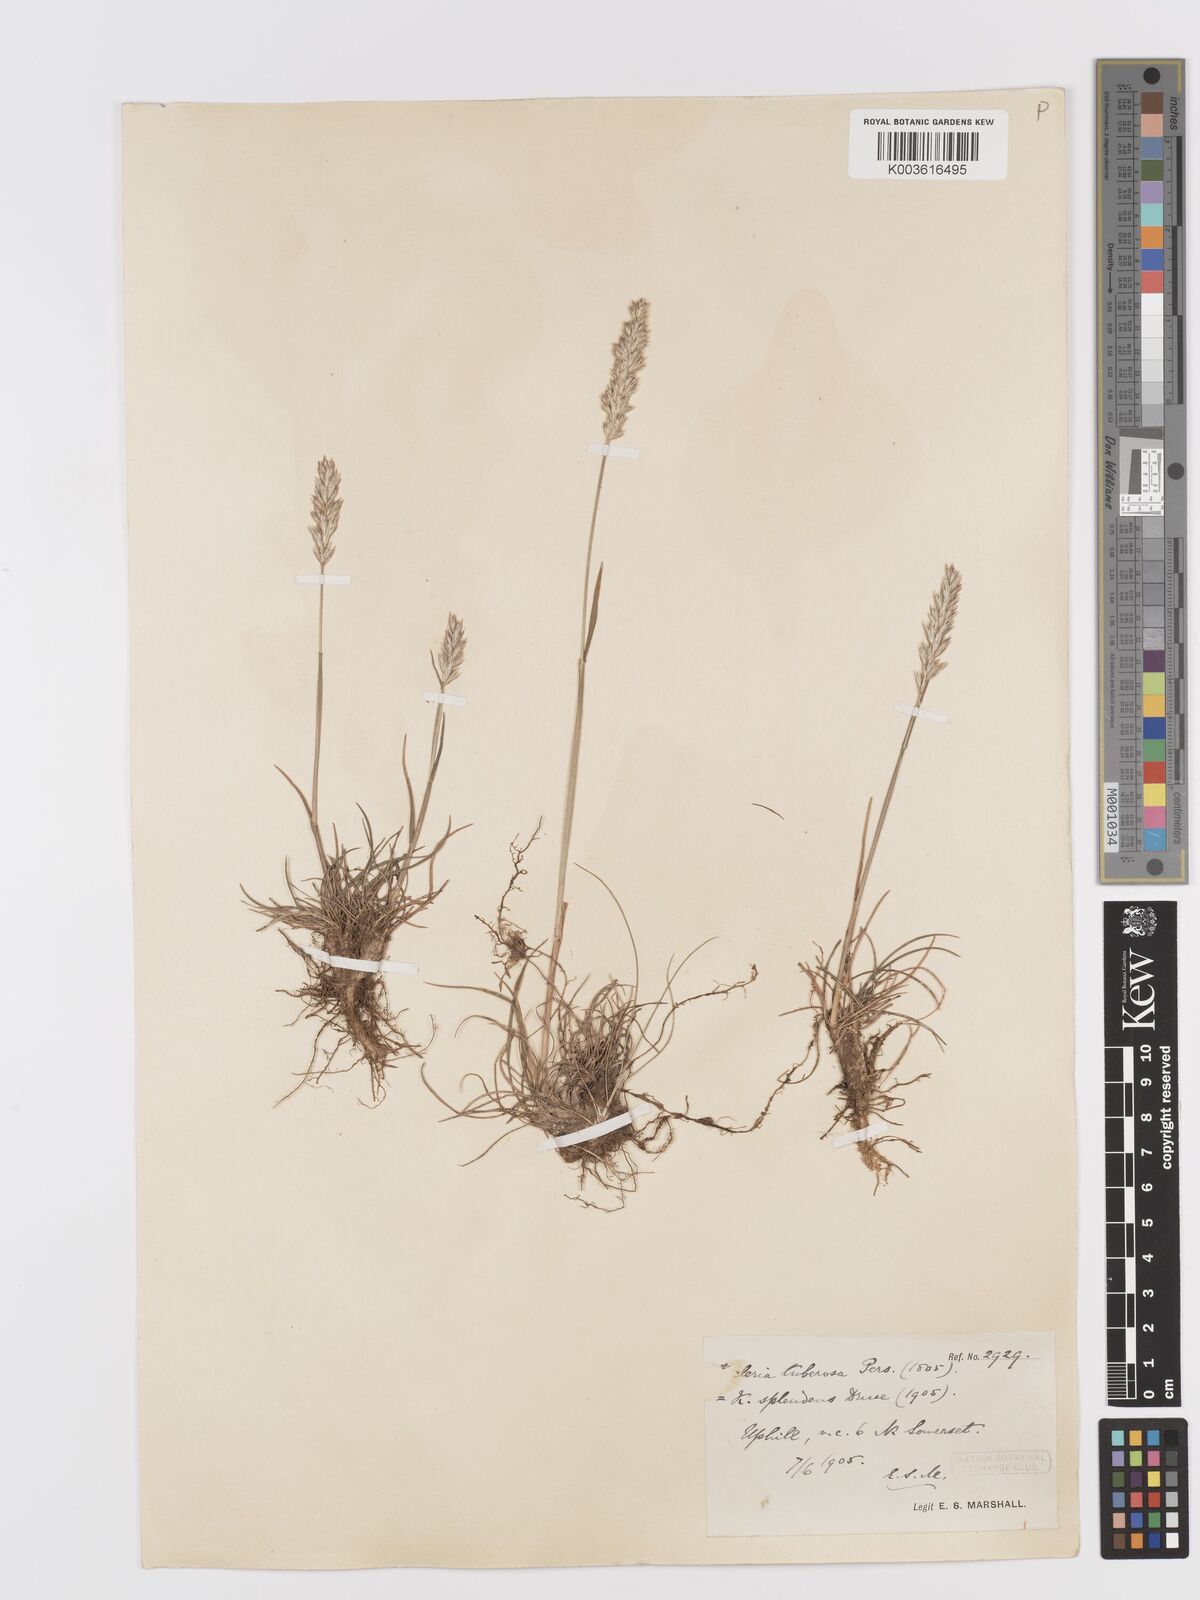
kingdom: Plantae
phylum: Tracheophyta
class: Liliopsida
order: Poales
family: Poaceae
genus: Koeleria
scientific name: Koeleria vallesiana
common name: Somerset hair-grass
